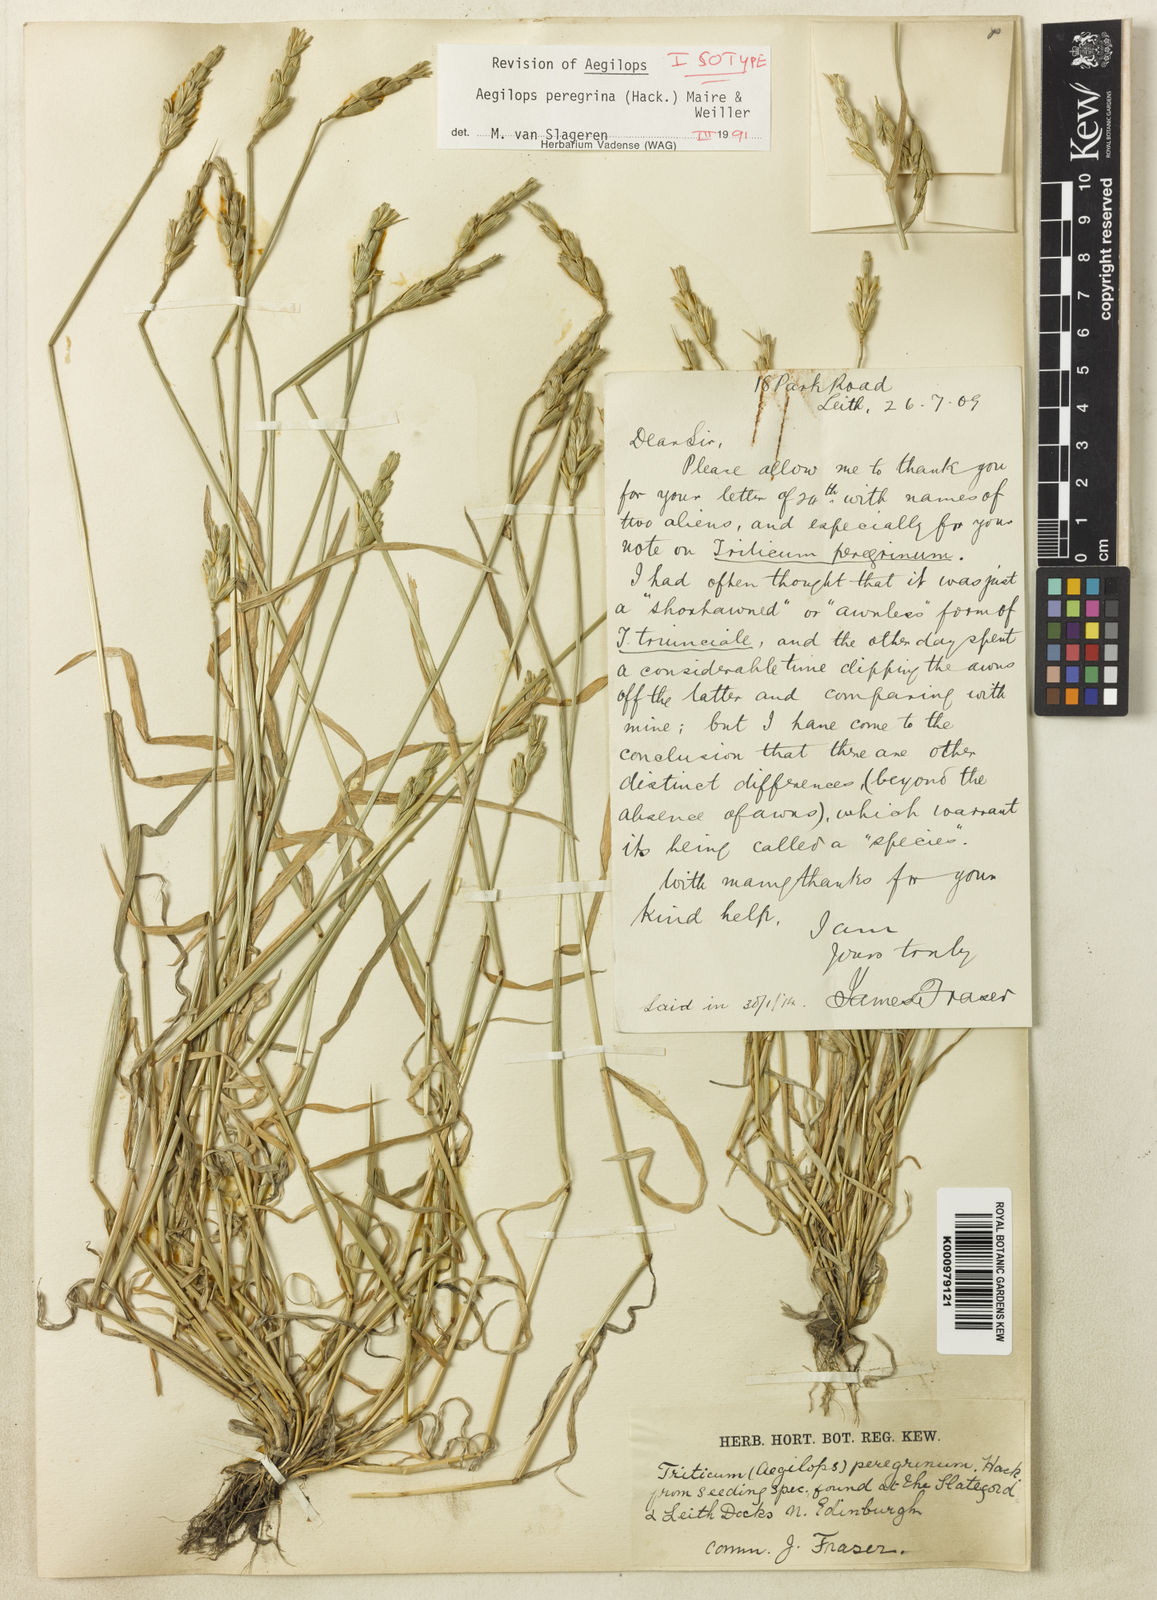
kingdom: Plantae
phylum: Tracheophyta
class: Liliopsida
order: Poales
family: Poaceae
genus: Aegilops
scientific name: Aegilops uniaristata
